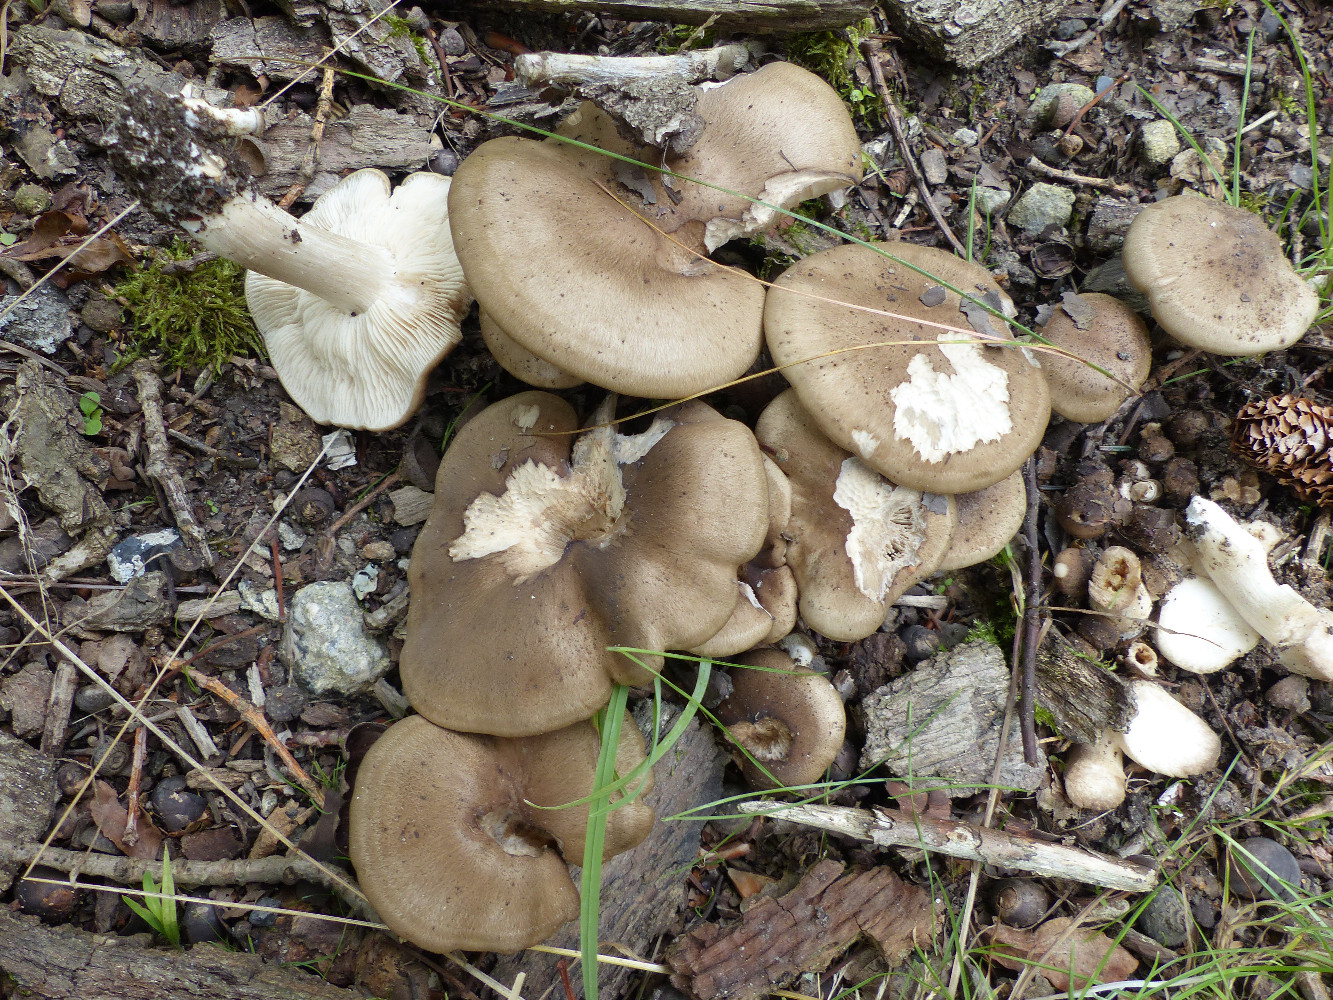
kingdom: Fungi
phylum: Basidiomycota
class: Agaricomycetes
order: Agaricales
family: Lyophyllaceae
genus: Lyophyllum
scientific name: Lyophyllum decastes
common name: Clustered domecap
